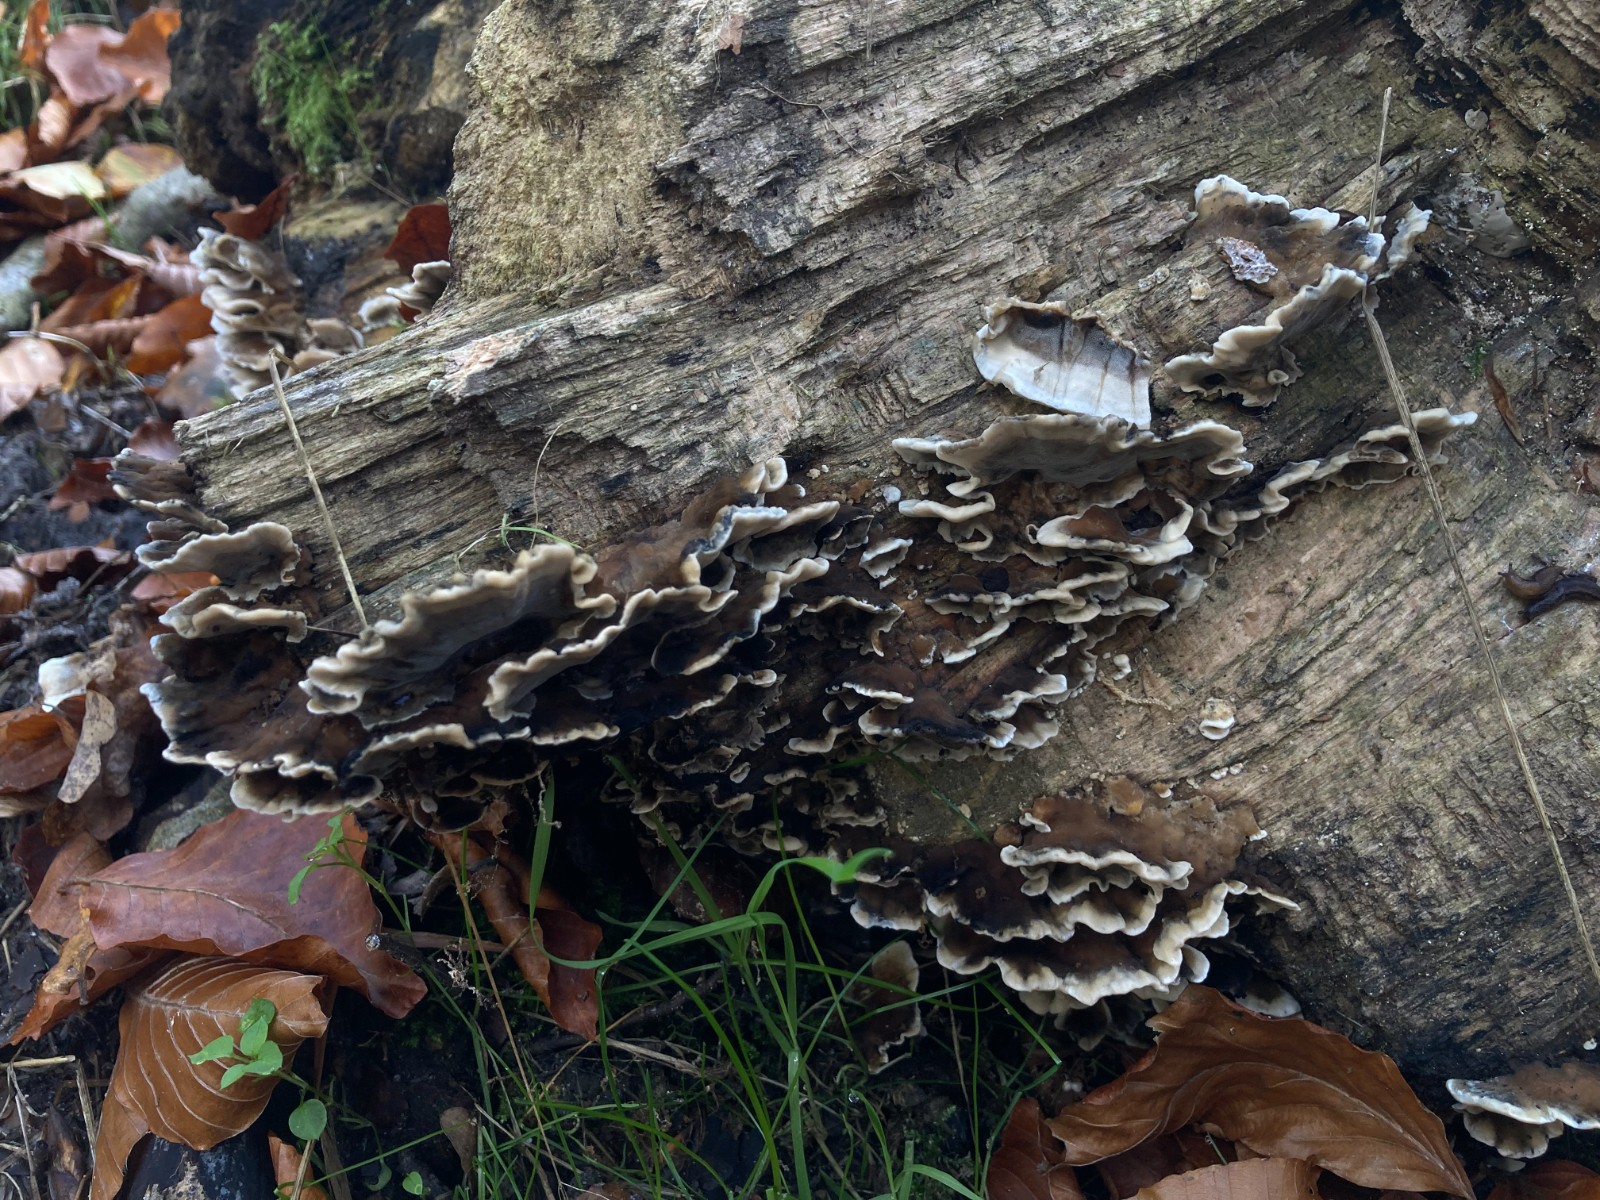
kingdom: Fungi
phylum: Basidiomycota
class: Agaricomycetes
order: Polyporales
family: Phanerochaetaceae
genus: Bjerkandera
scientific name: Bjerkandera adusta
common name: sveden sodporesvamp
